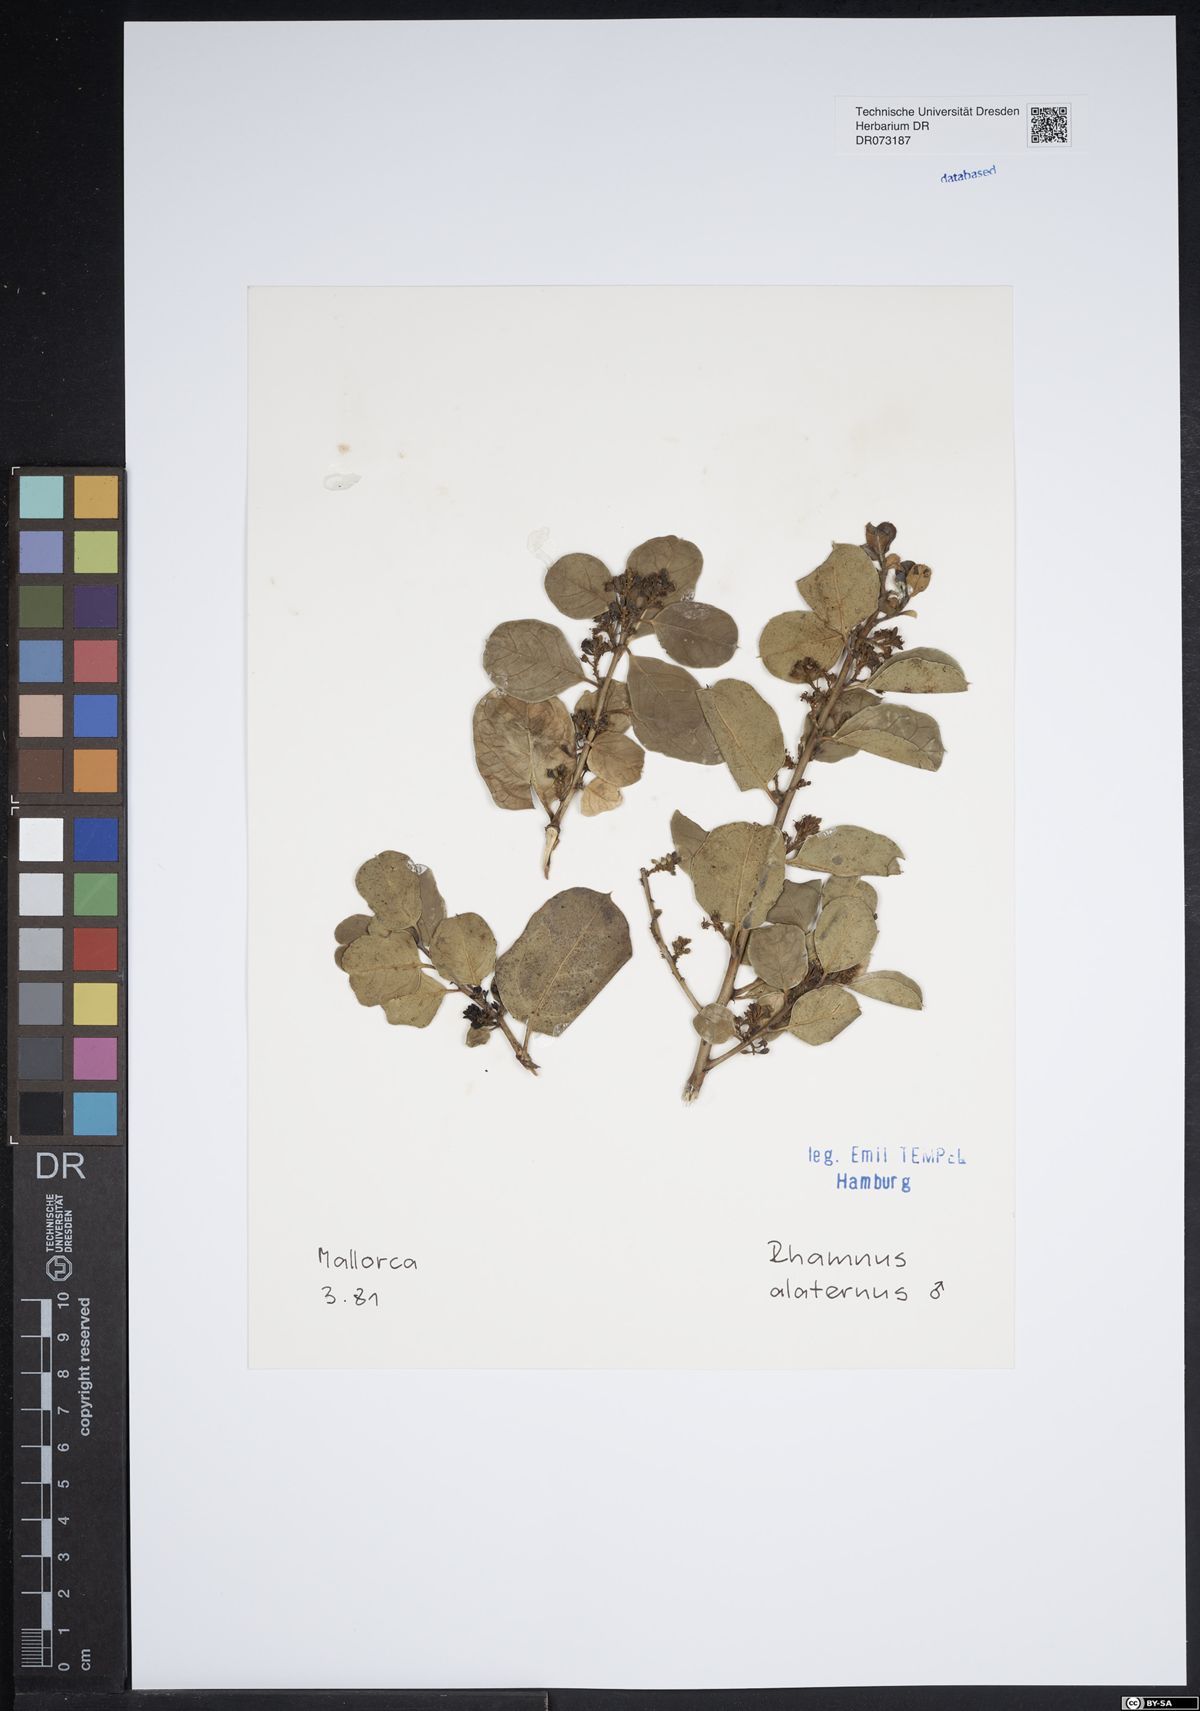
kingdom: Plantae
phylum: Tracheophyta
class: Magnoliopsida
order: Rosales
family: Rhamnaceae
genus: Rhamnus
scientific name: Rhamnus alaternus
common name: Mediterranean buckthorn
